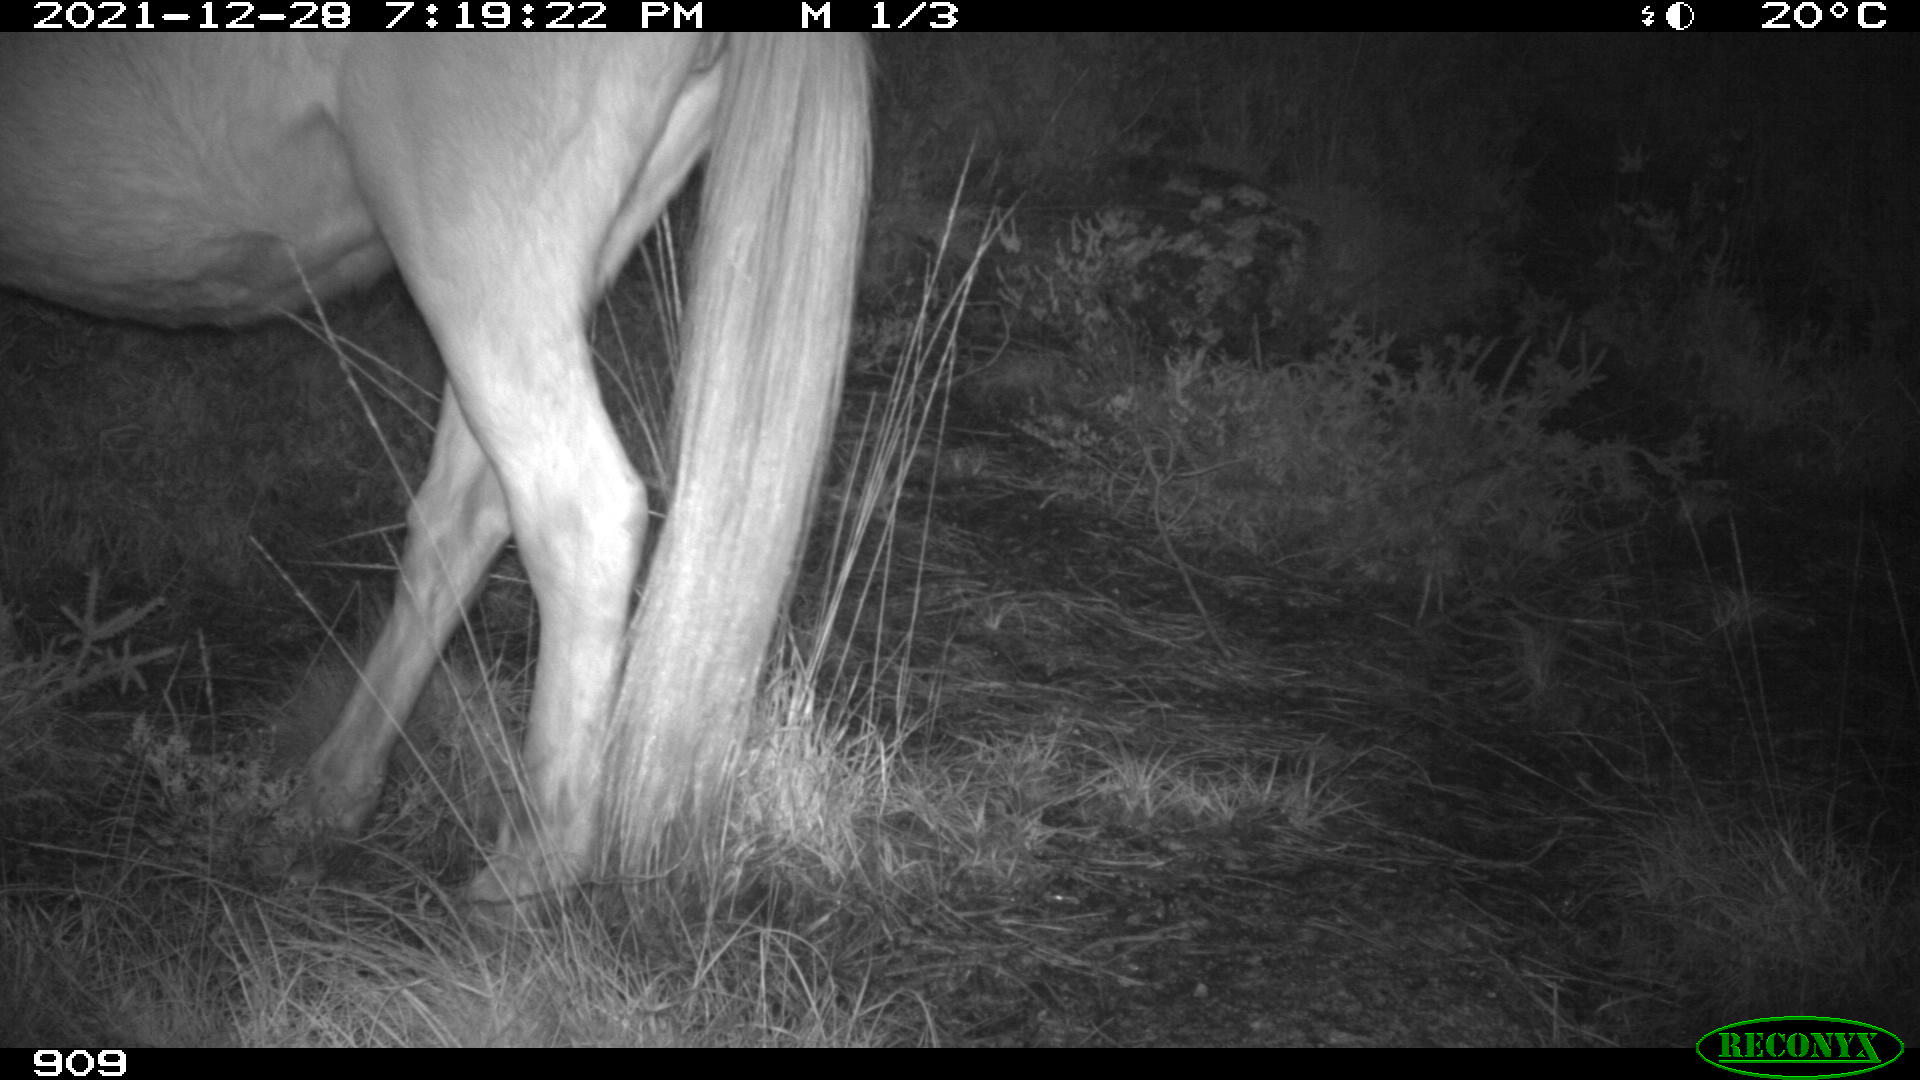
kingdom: Animalia
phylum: Chordata
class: Mammalia
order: Perissodactyla
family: Equidae
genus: Equus
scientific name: Equus caballus
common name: Horse
